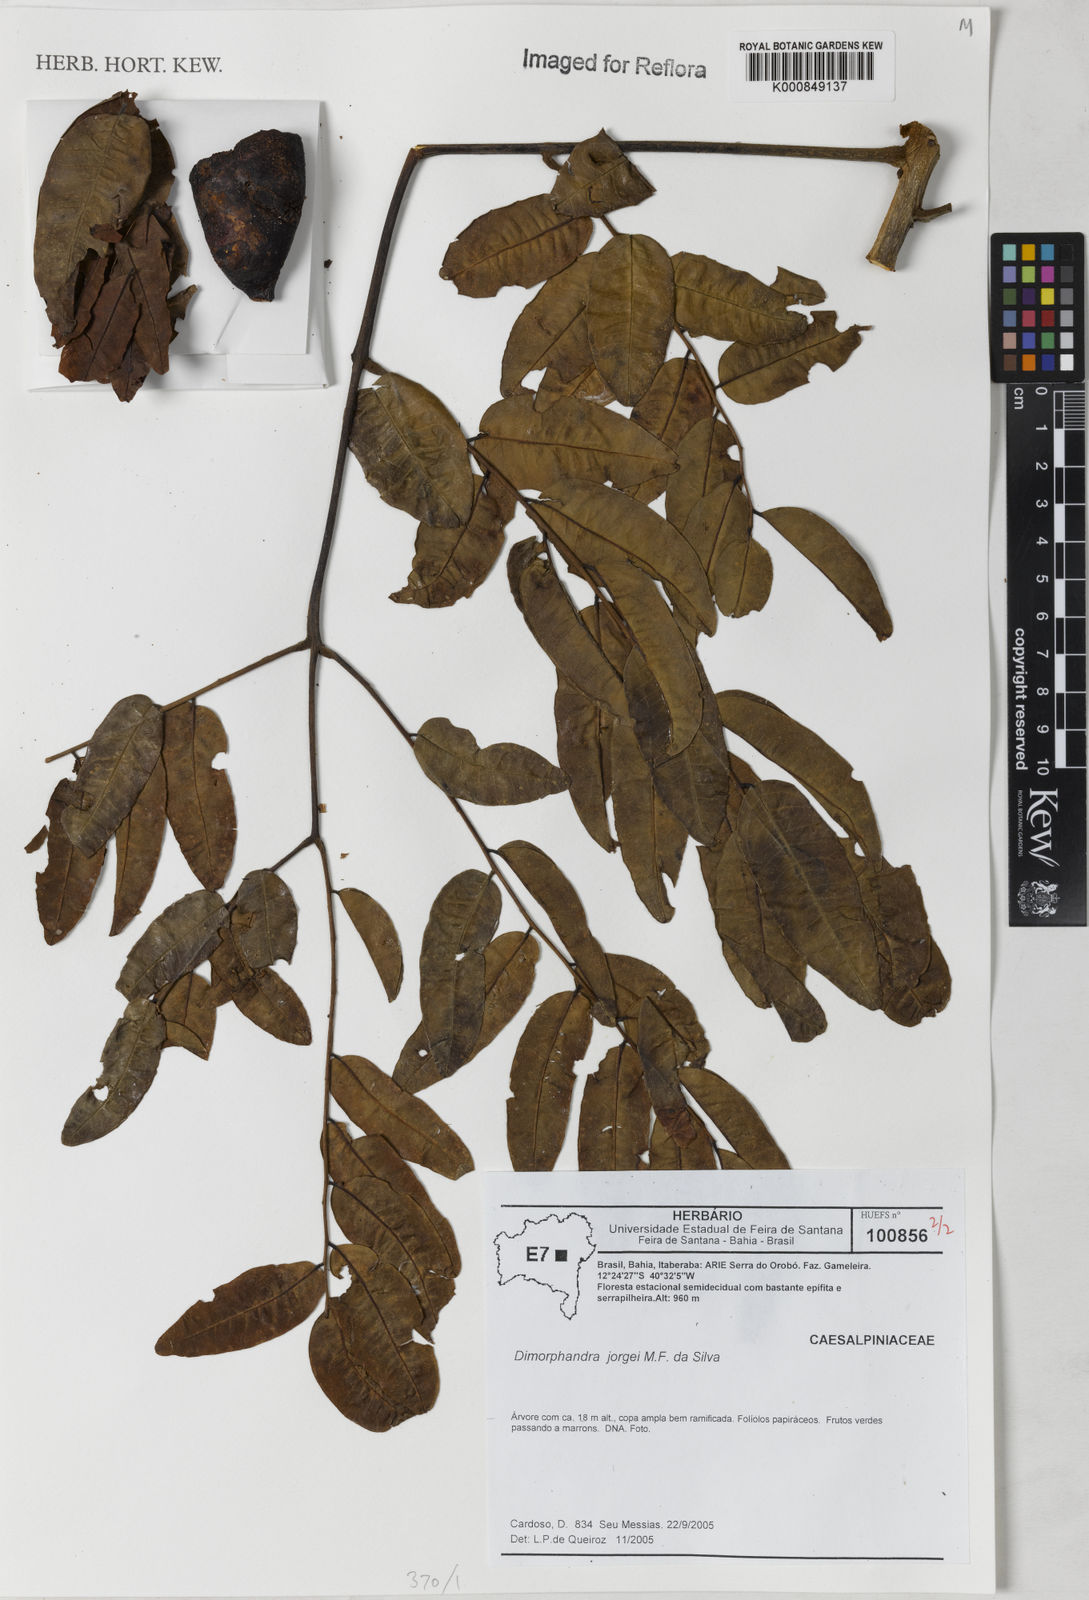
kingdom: Plantae
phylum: Tracheophyta
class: Magnoliopsida
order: Fabales
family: Fabaceae
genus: Dimorphandra
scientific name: Dimorphandra jorgei
